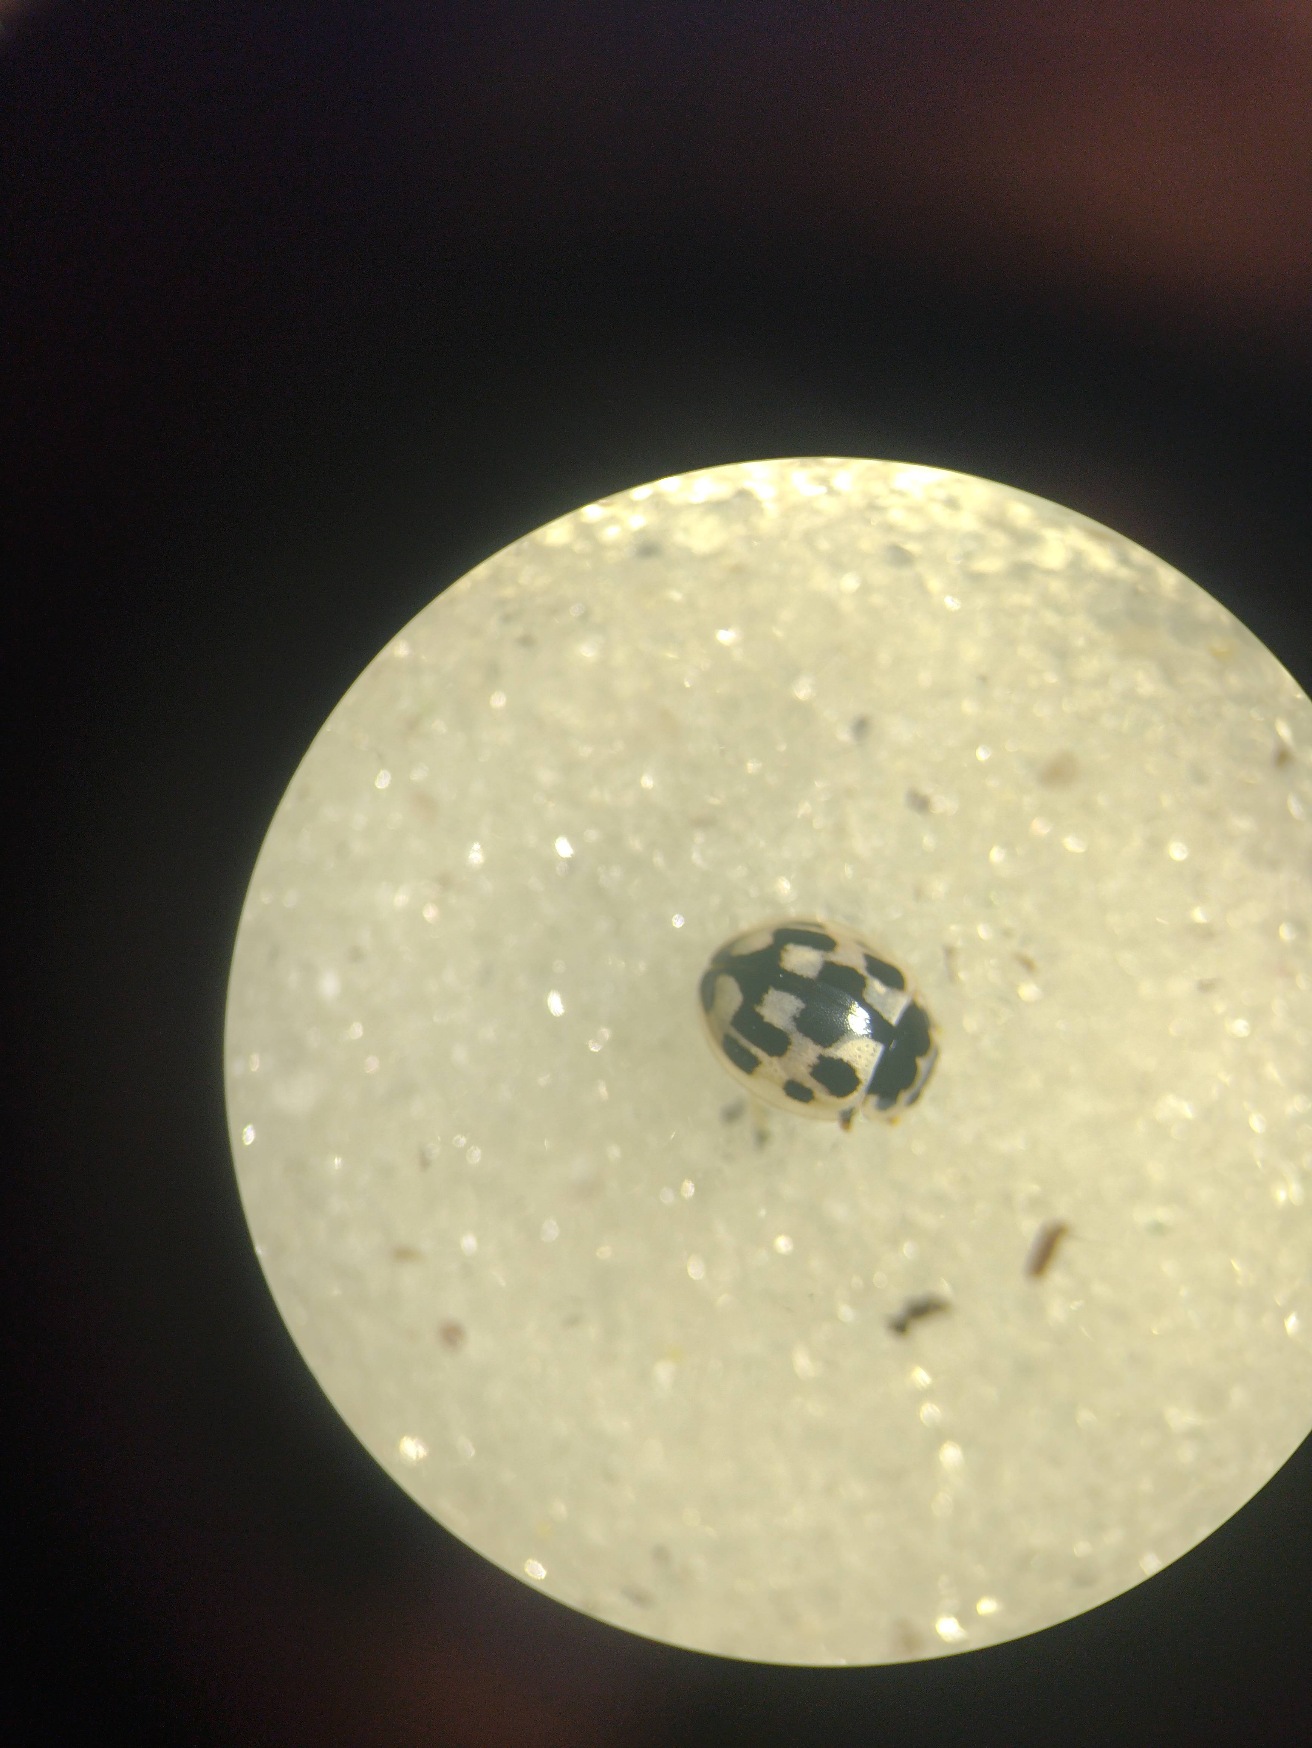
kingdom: Animalia
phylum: Arthropoda
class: Insecta
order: Coleoptera
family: Coccinellidae
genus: Propylaea
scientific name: Propylaea quatuordecimpunctata
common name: Skakbræt
